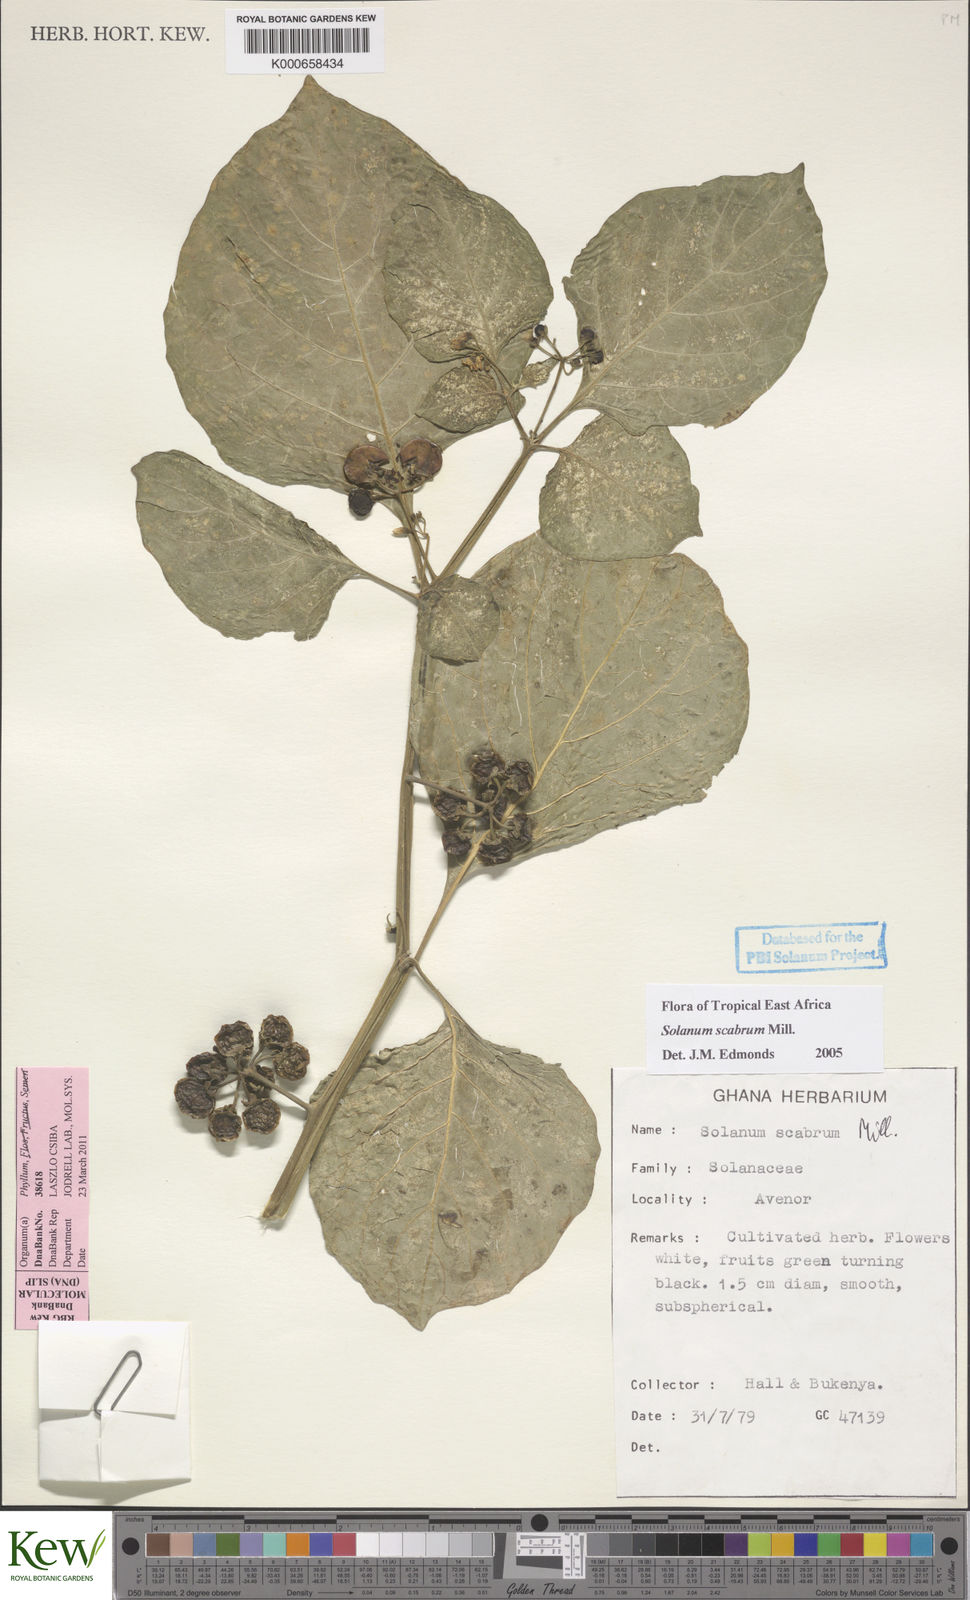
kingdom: Plantae
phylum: Tracheophyta
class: Magnoliopsida
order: Solanales
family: Solanaceae
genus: Solanum
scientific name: Solanum scabrum
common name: Garden-huckleberry
